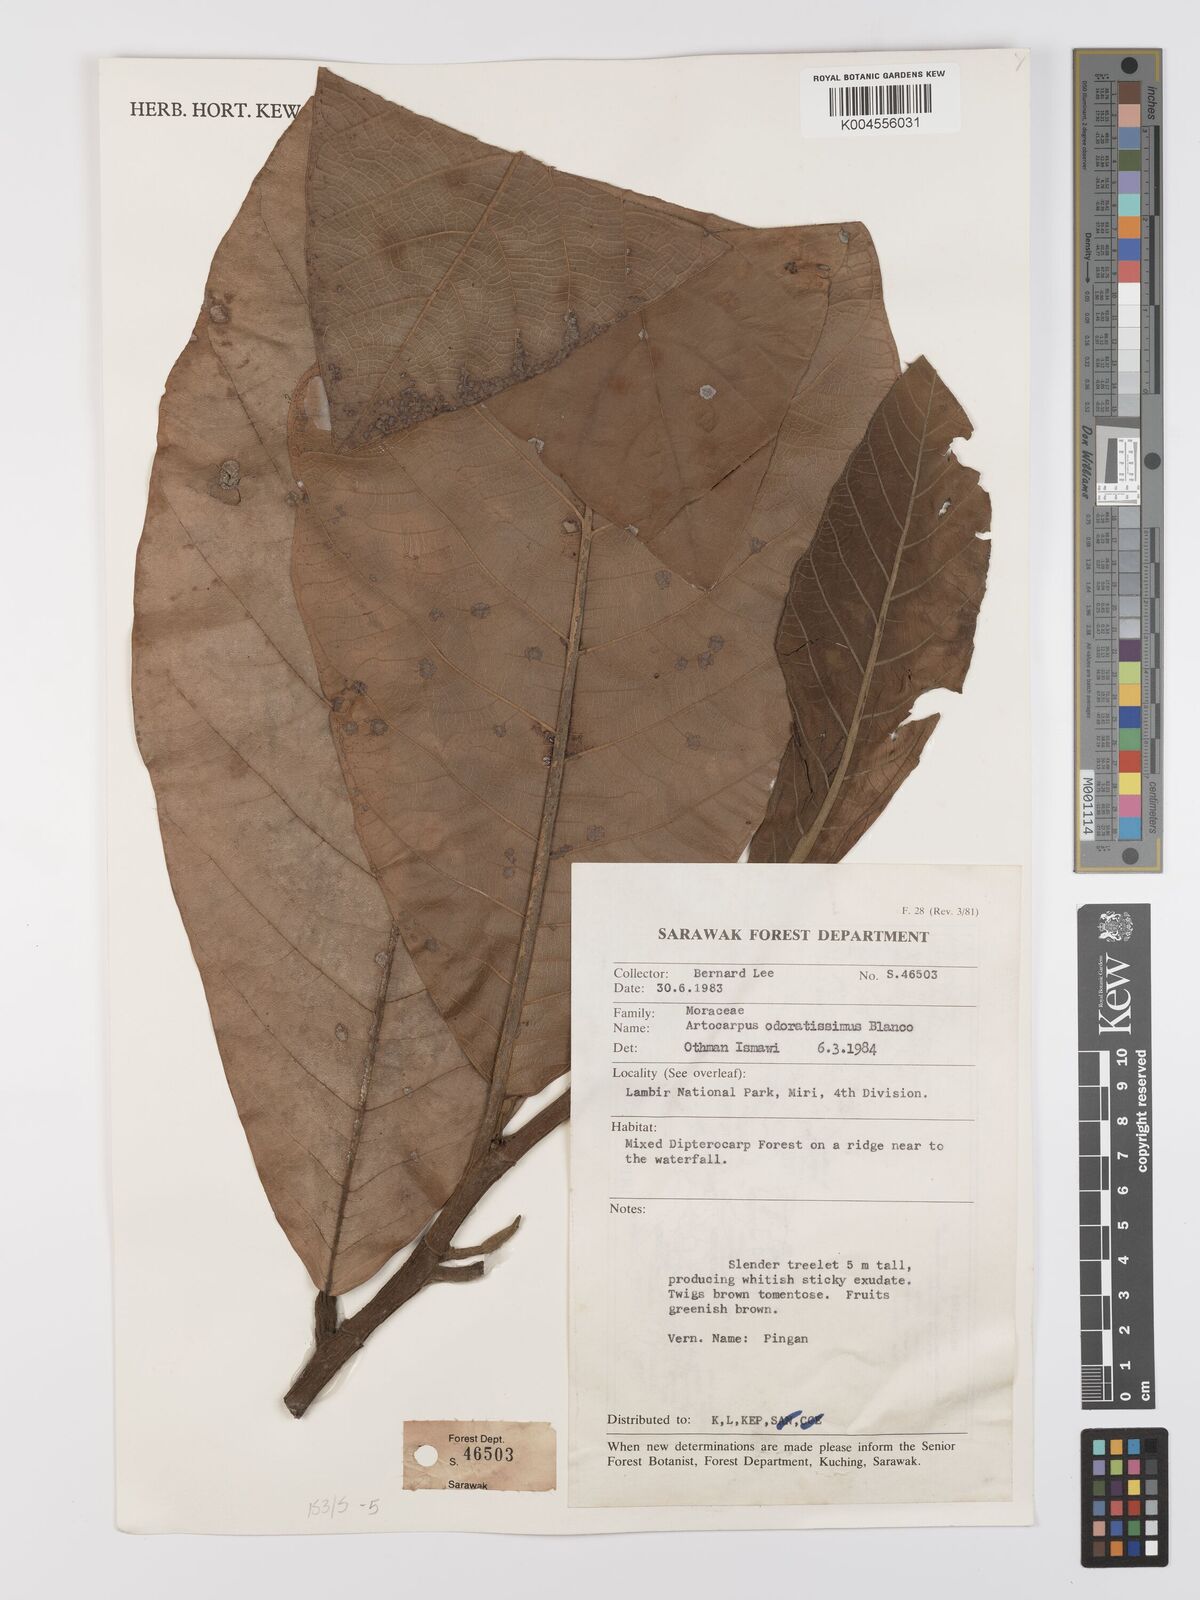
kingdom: Plantae
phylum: Tracheophyta
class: Magnoliopsida
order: Rosales
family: Moraceae
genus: Artocarpus
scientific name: Artocarpus odoratissimus
